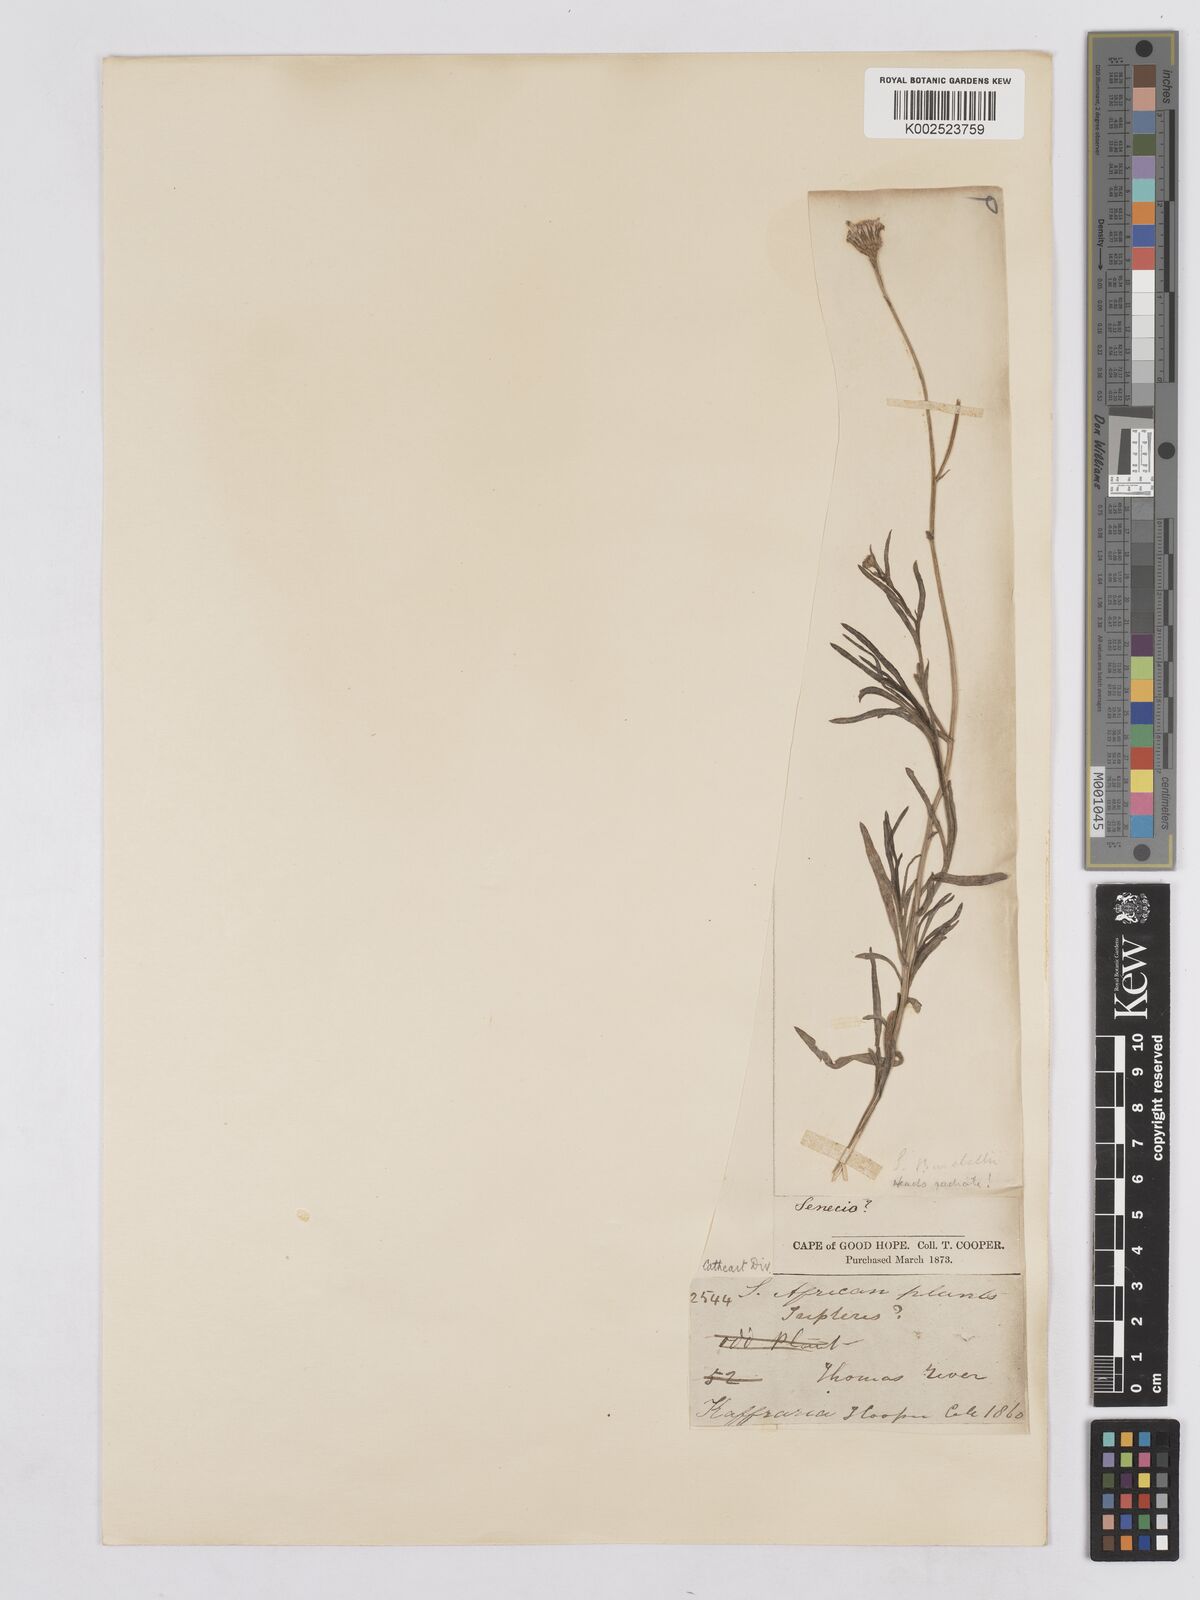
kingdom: Plantae
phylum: Tracheophyta
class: Magnoliopsida
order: Asterales
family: Asteraceae
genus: Senecio
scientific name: Senecio burchellii
